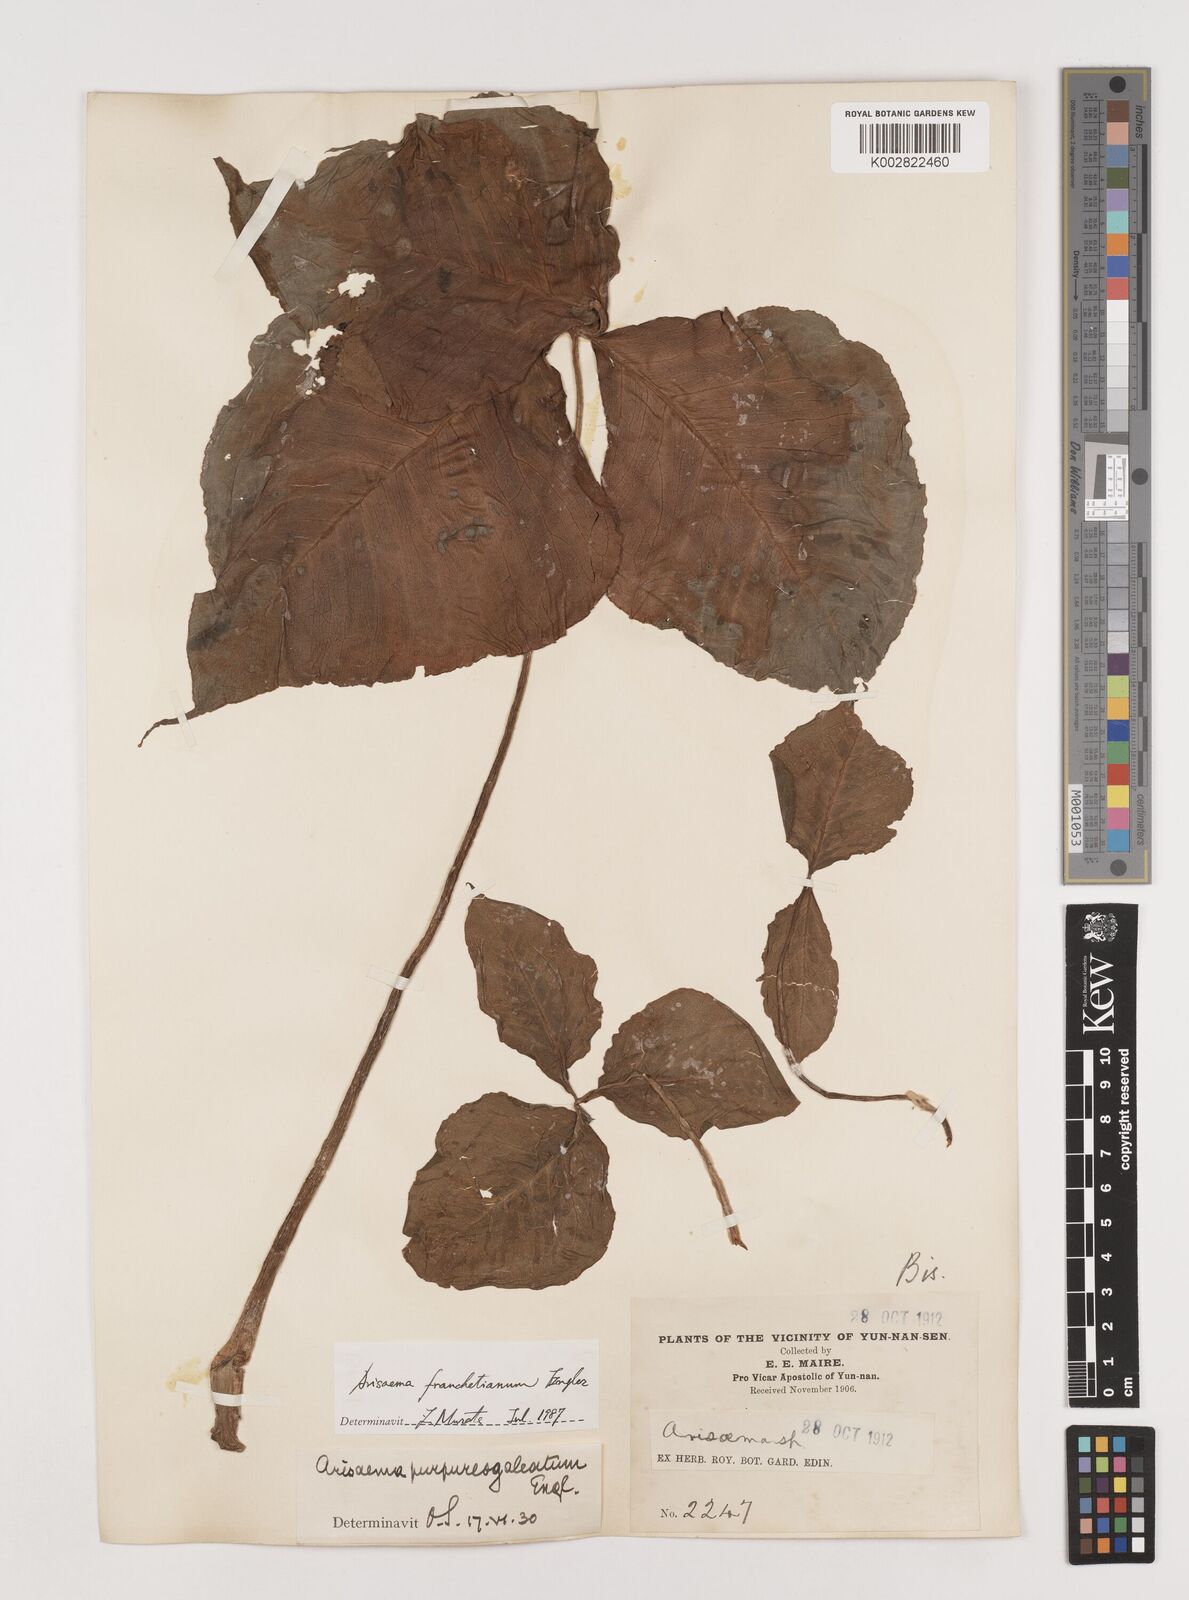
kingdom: Plantae
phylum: Tracheophyta
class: Liliopsida
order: Alismatales
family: Araceae
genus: Arisaema
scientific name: Arisaema franchetianum
